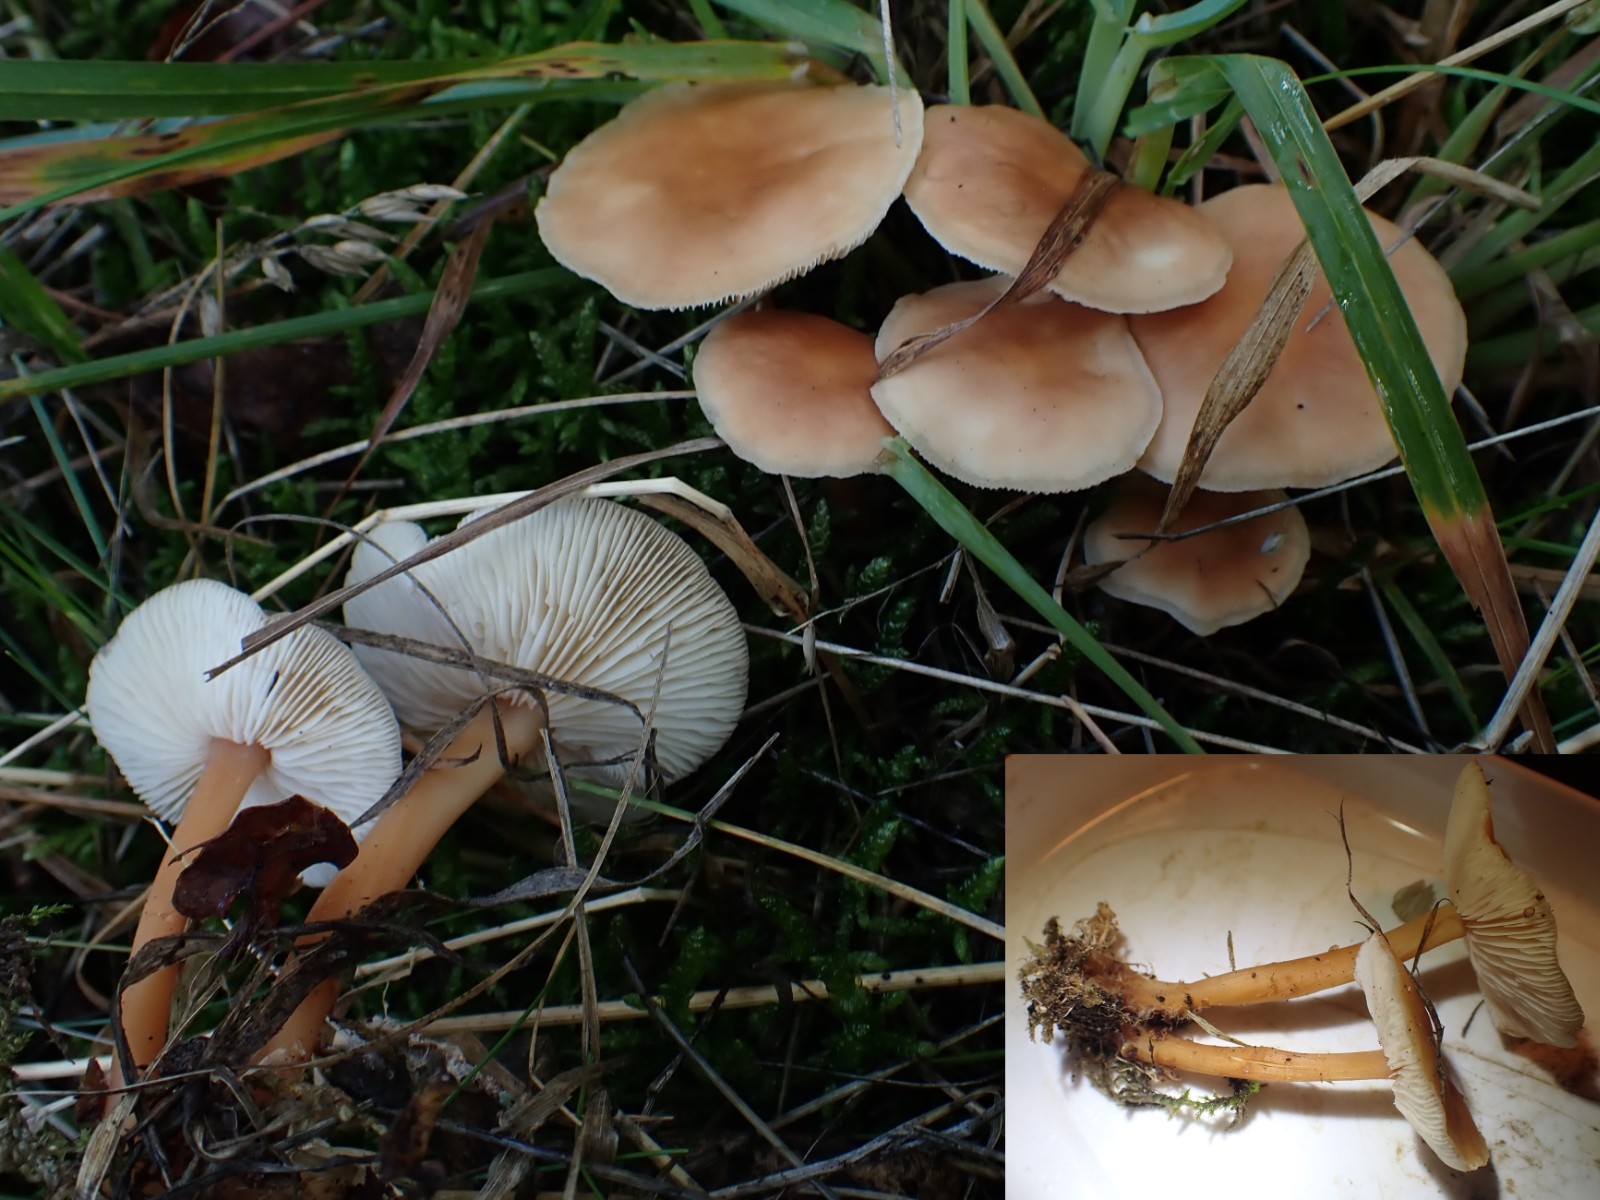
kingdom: Fungi
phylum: Basidiomycota
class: Agaricomycetes
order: Agaricales
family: Omphalotaceae
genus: Gymnopus
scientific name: Gymnopus dryophilus
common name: løv-fladhat
